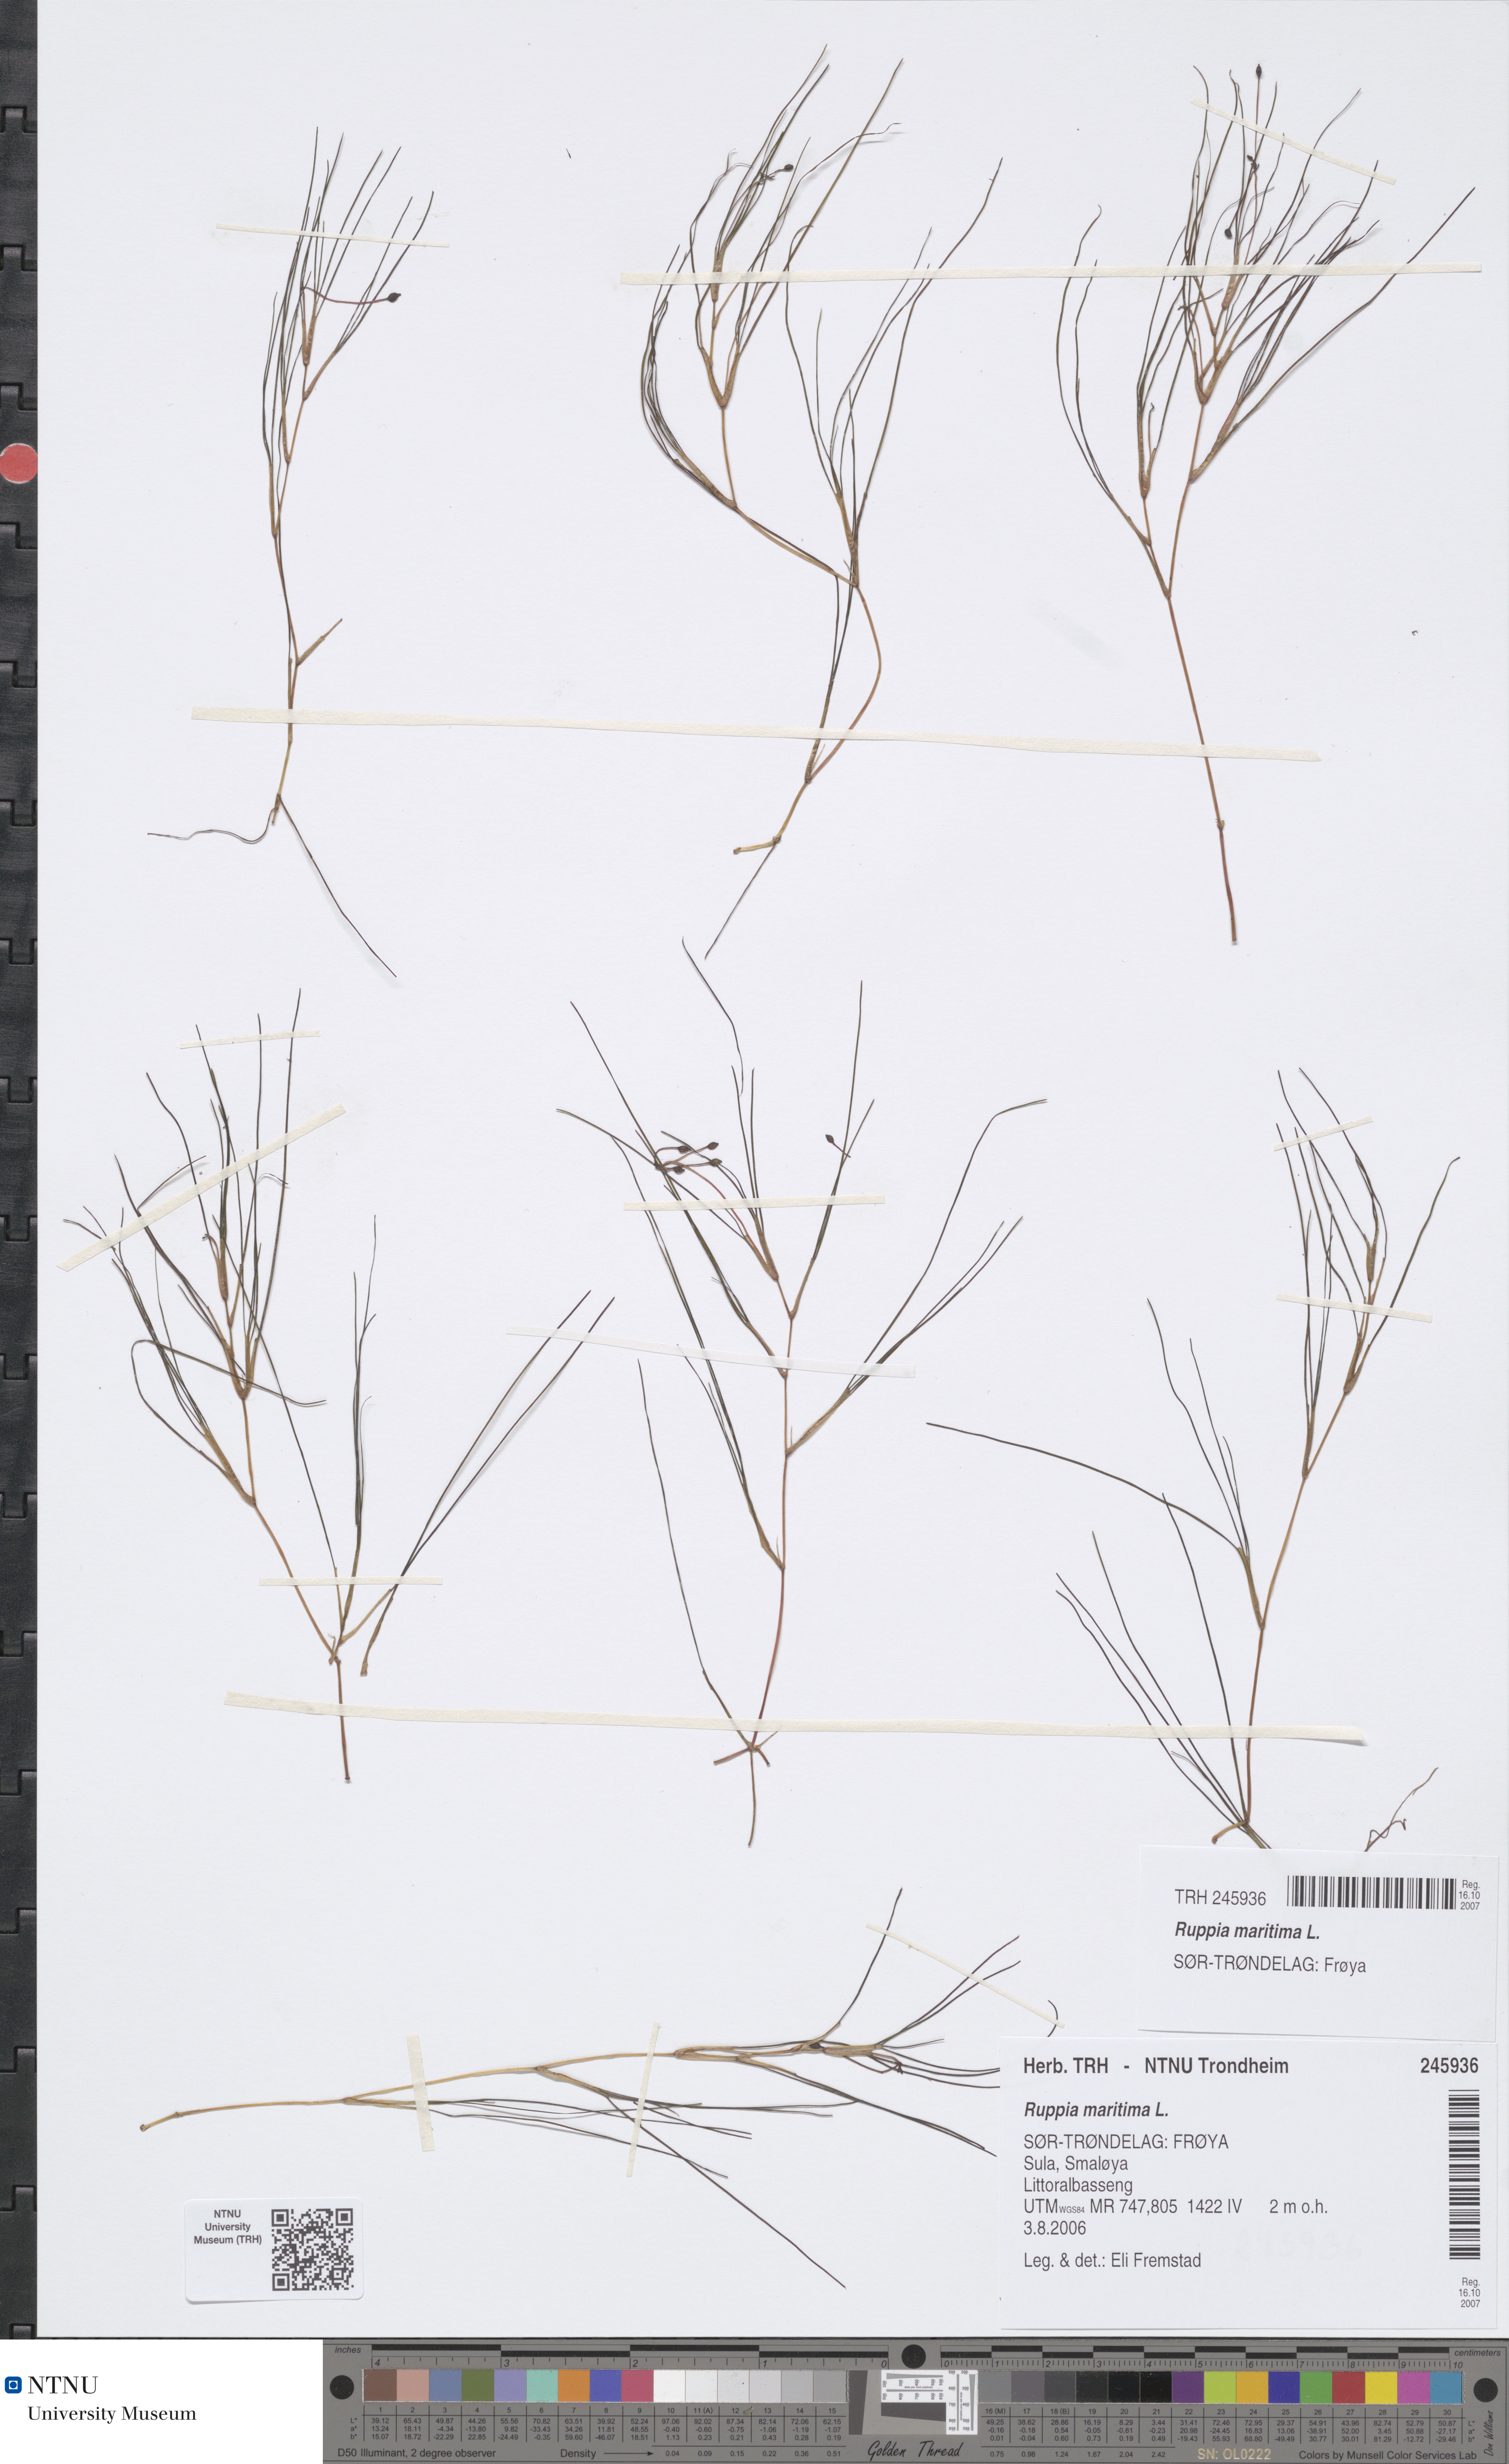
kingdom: Plantae
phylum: Tracheophyta
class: Liliopsida
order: Alismatales
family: Ruppiaceae
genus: Ruppia
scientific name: Ruppia maritima
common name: Beaked tasselweed
